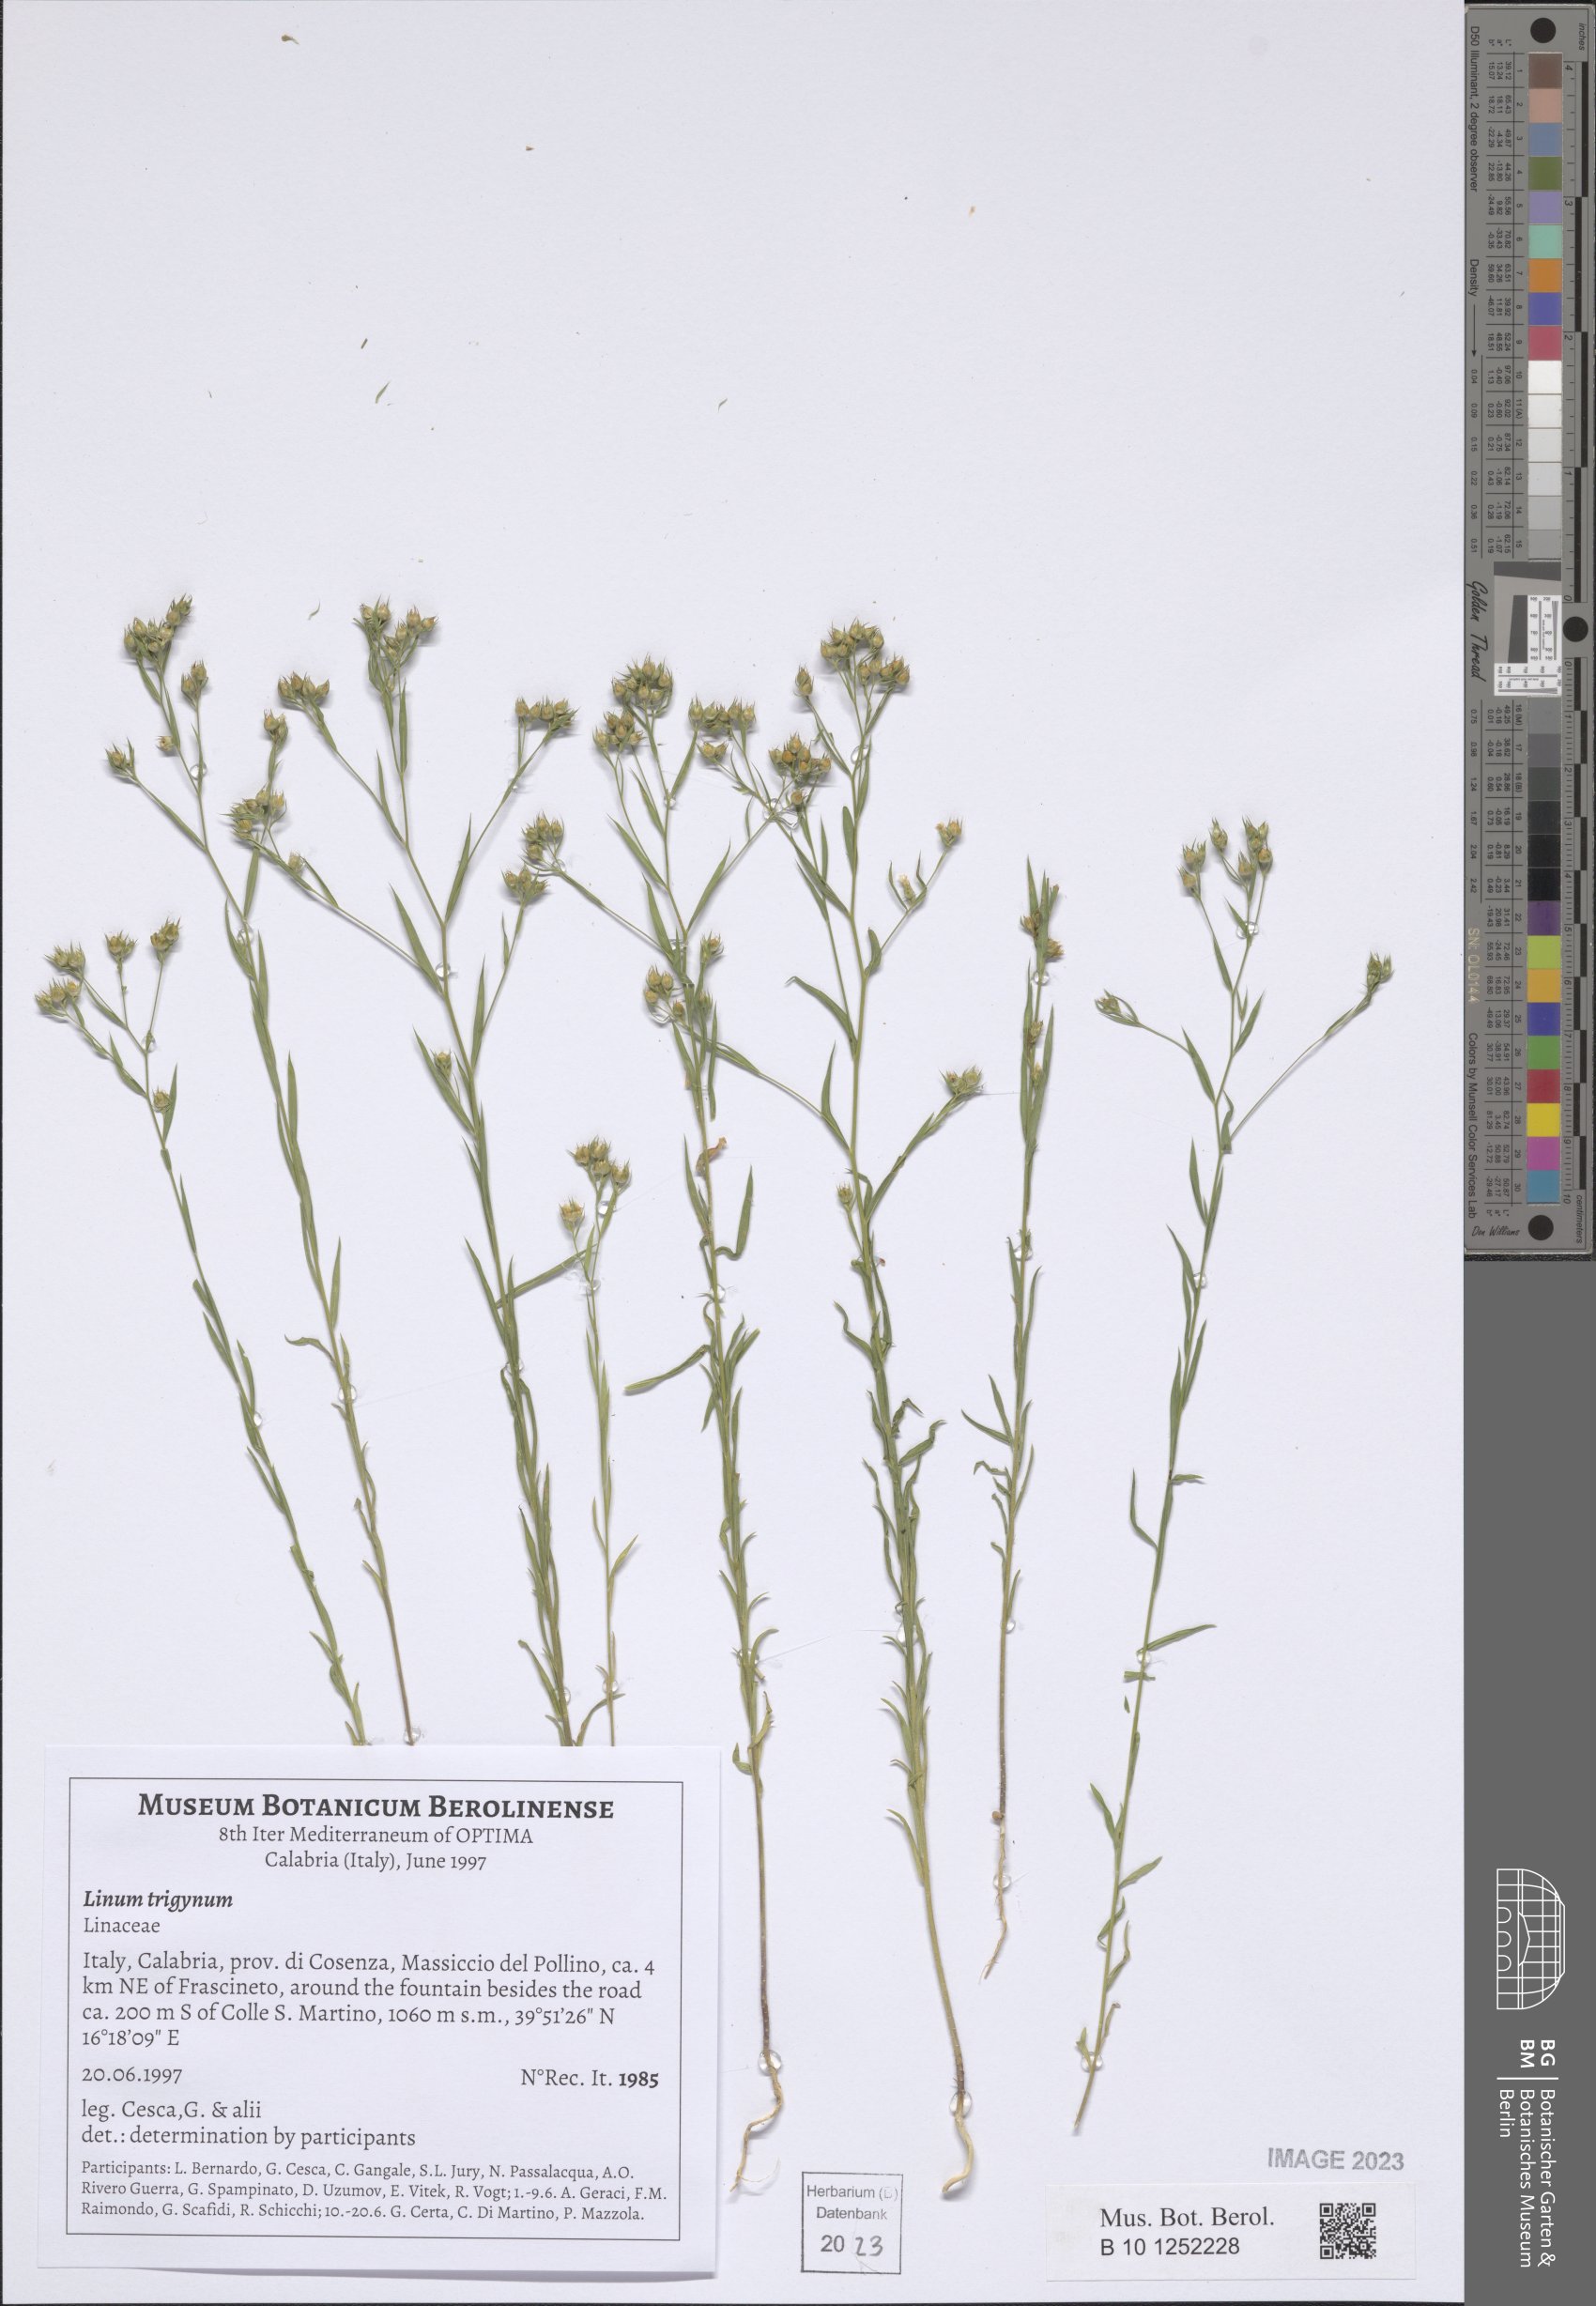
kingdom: Plantae
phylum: Tracheophyta
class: Magnoliopsida
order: Malpighiales
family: Linaceae
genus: Linum
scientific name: Linum trigynum
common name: French flax
